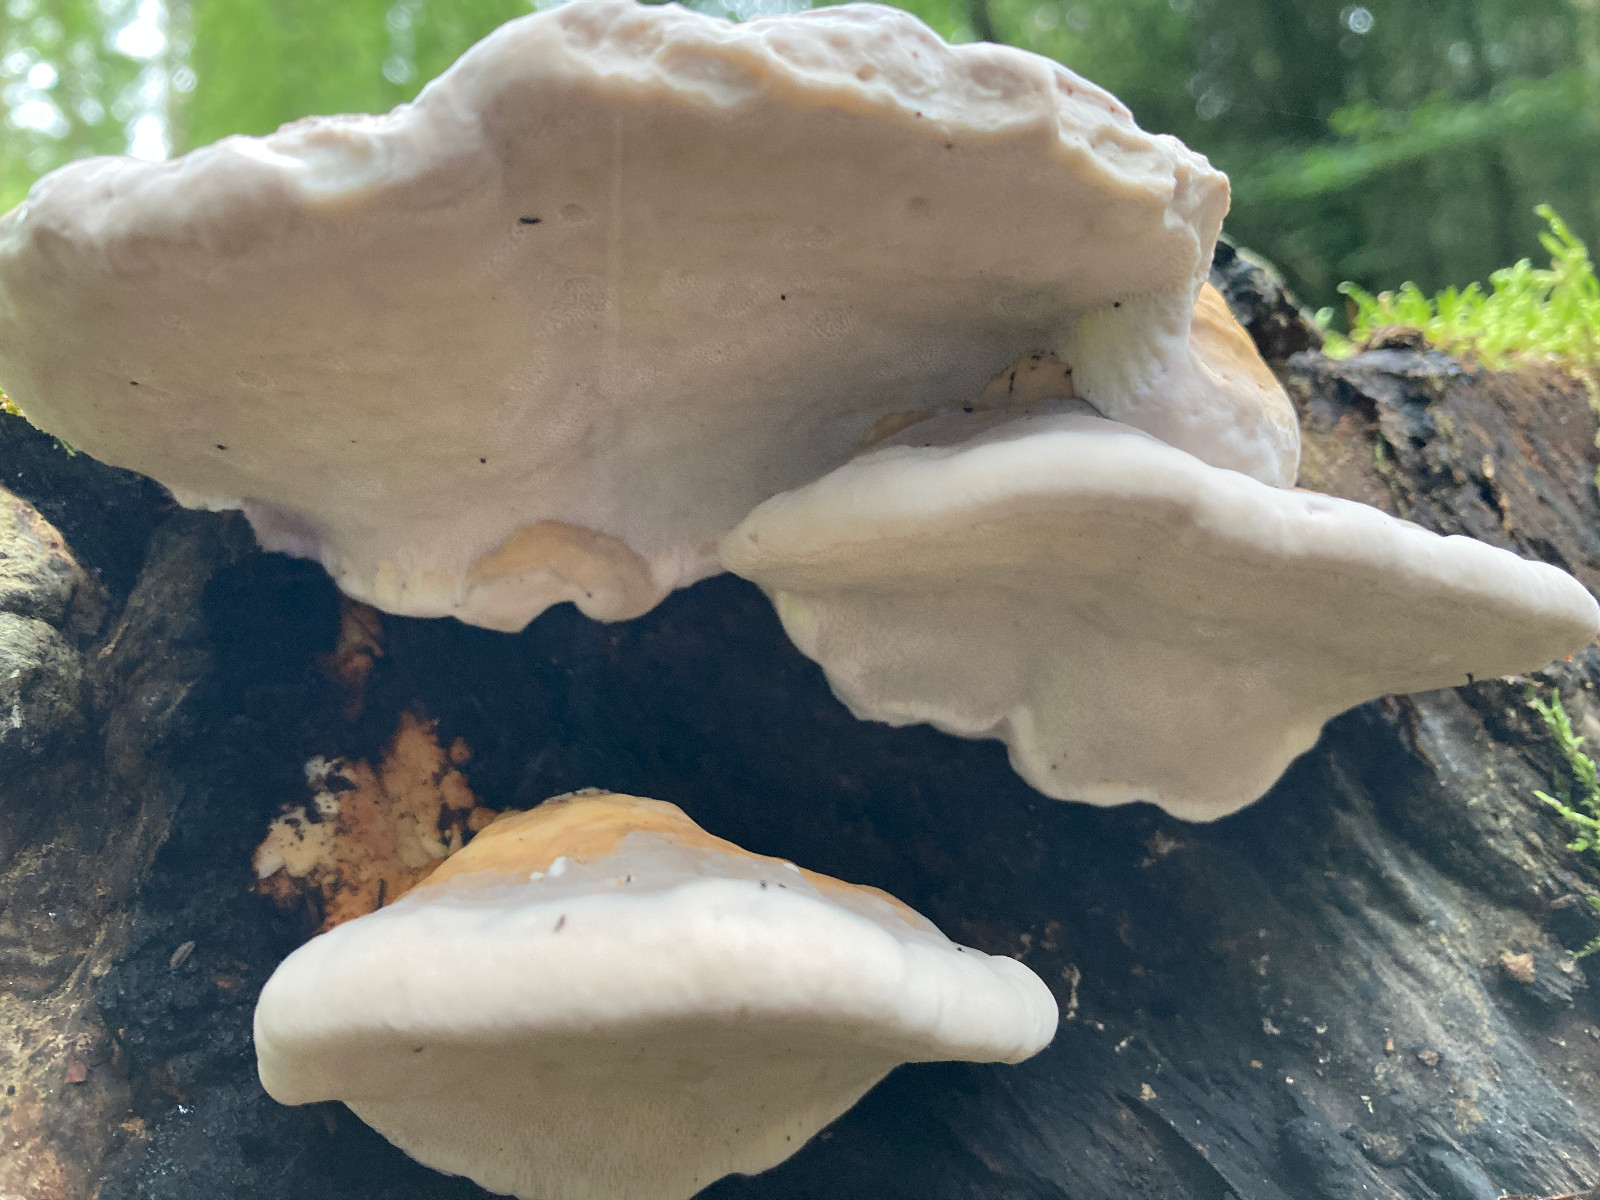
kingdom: Fungi
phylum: Basidiomycota
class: Agaricomycetes
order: Polyporales
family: Fomitopsidaceae
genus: Fomitopsis
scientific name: Fomitopsis pinicola
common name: randbæltet hovporesvamp
